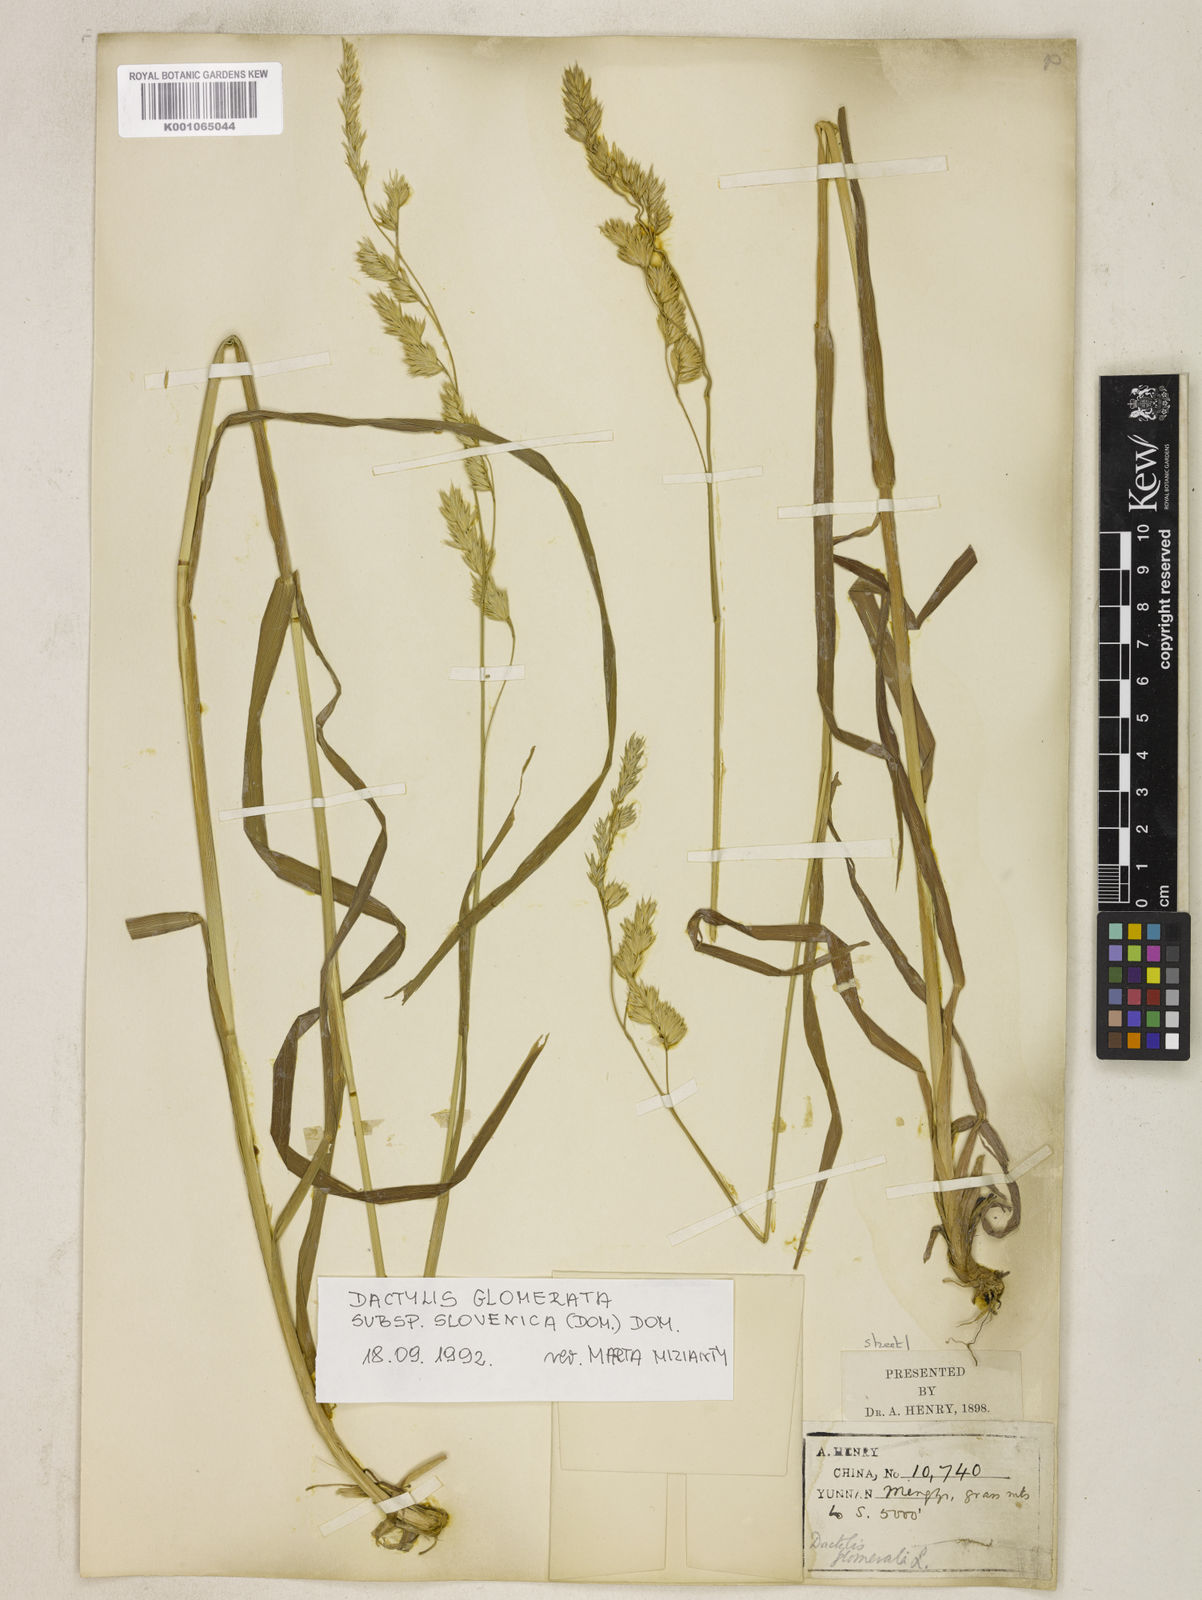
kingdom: Plantae
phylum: Tracheophyta
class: Liliopsida
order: Poales
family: Poaceae
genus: Dactylis
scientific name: Dactylis glomerata
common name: Orchardgrass
